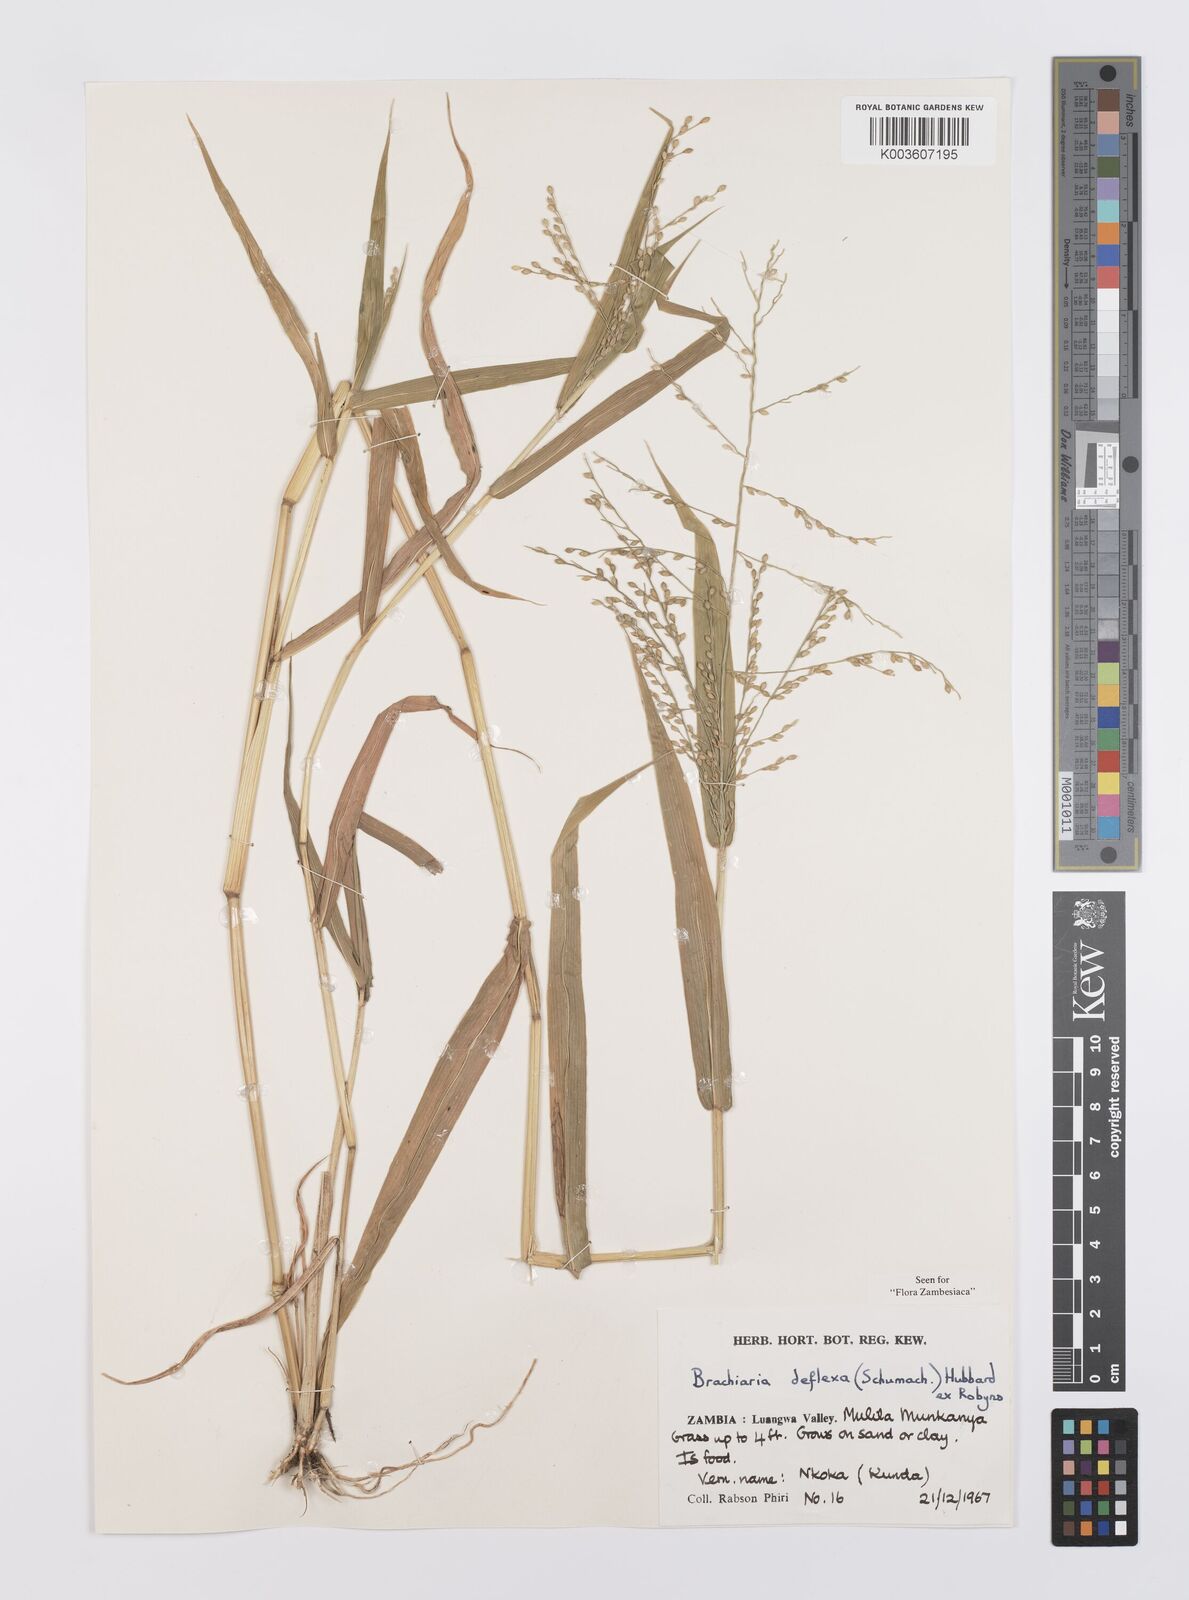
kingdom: Plantae
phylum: Tracheophyta
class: Liliopsida
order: Poales
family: Poaceae
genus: Urochloa
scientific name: Urochloa deflexa
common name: Guinea millet
